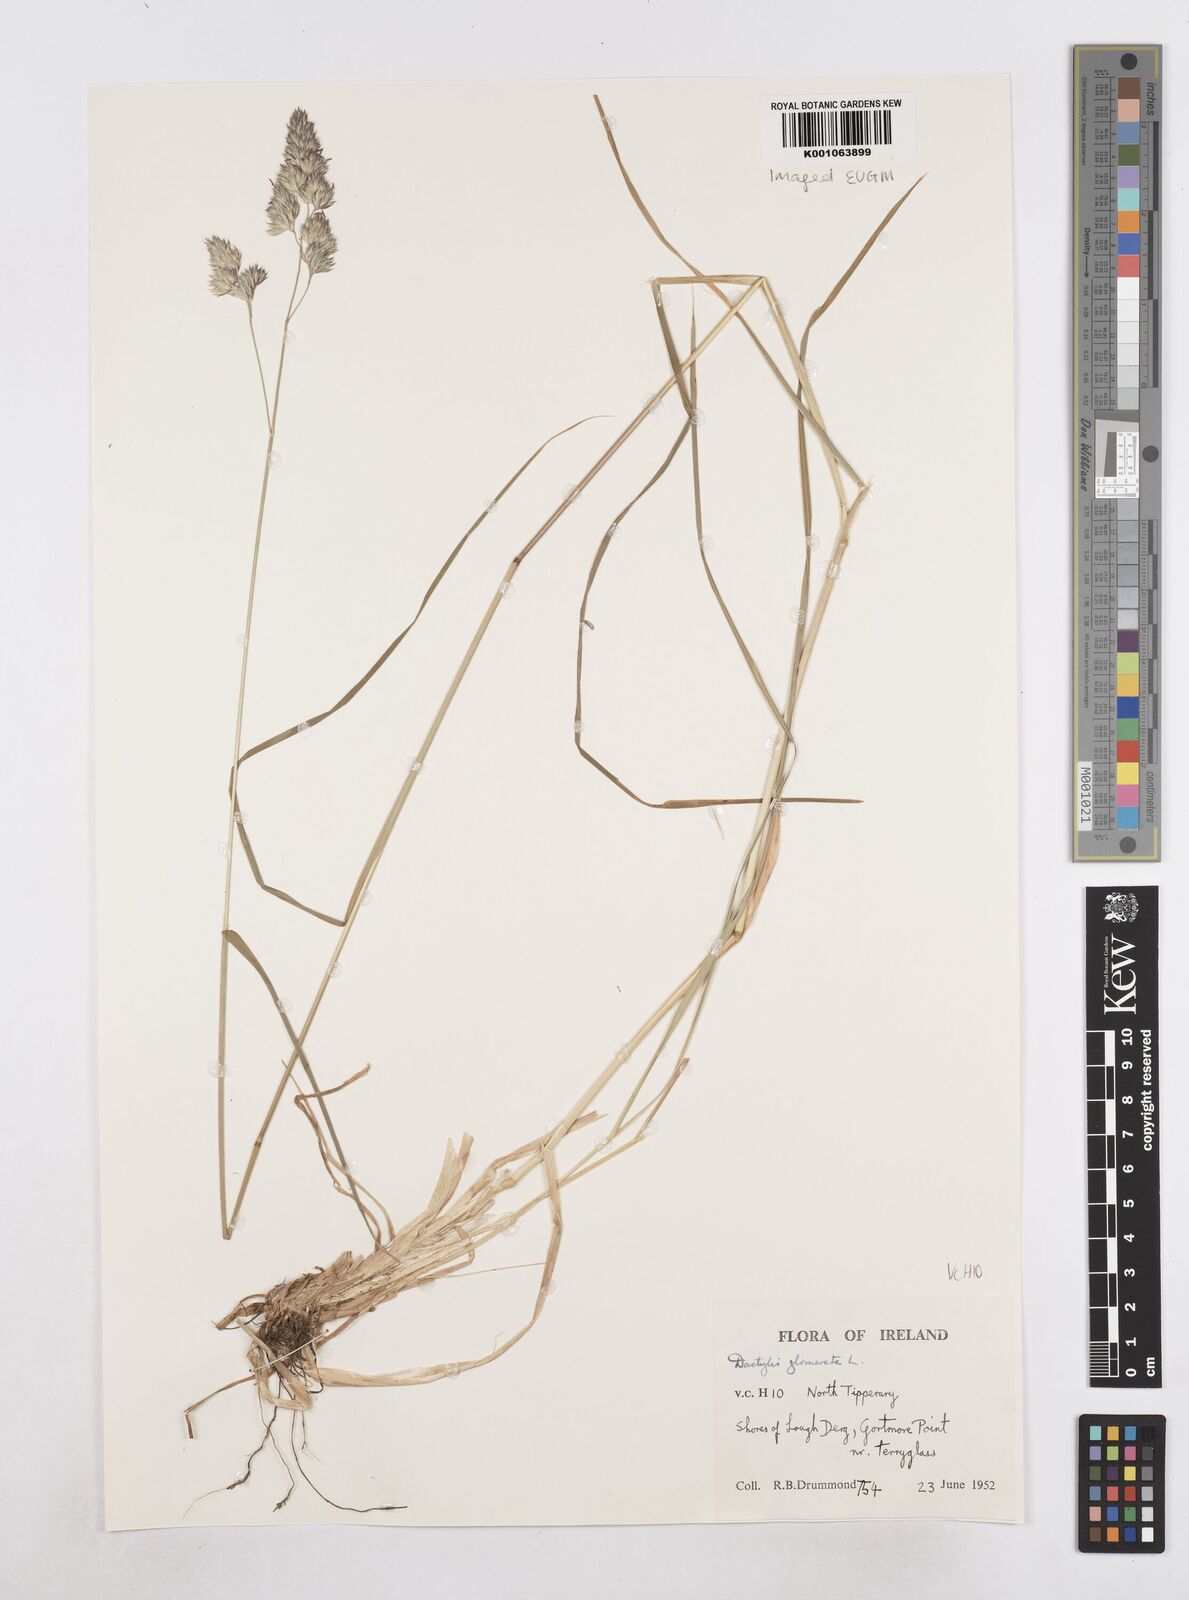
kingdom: Plantae
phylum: Tracheophyta
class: Liliopsida
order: Poales
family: Poaceae
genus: Dactylis
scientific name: Dactylis glomerata
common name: Orchardgrass
